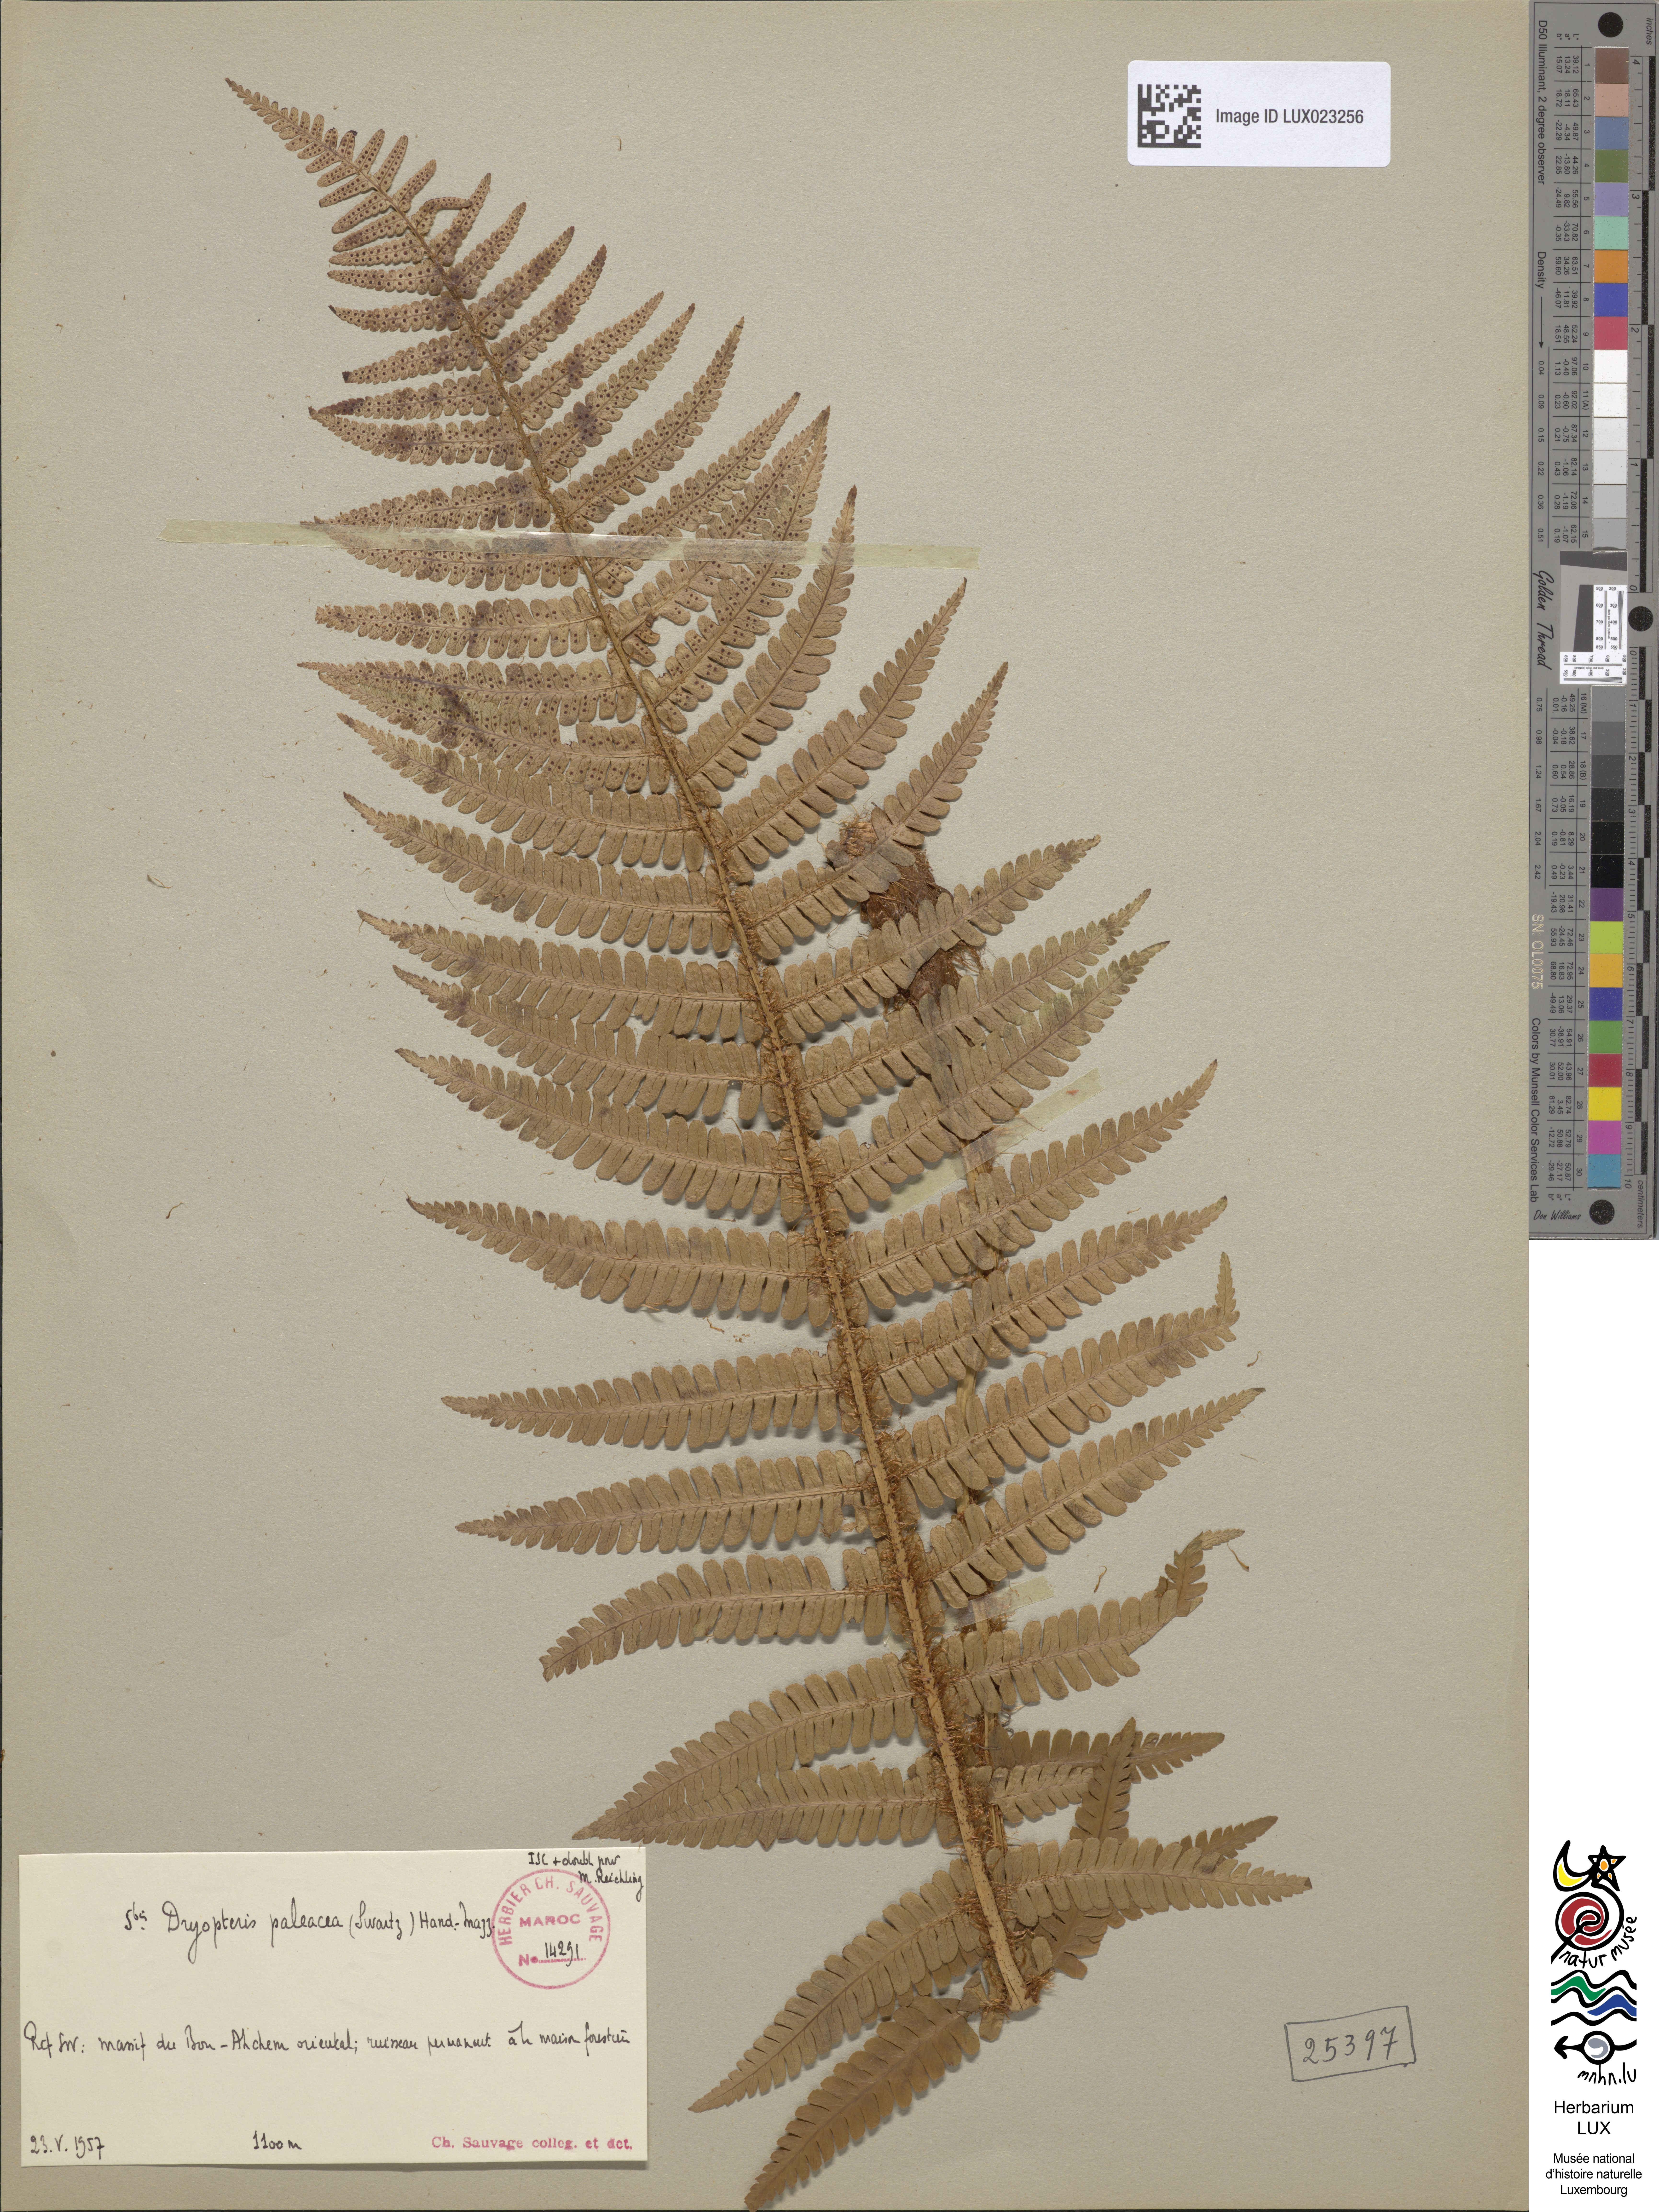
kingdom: Plantae
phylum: Tracheophyta
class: Polypodiopsida
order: Polypodiales
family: Dryopteridaceae
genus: Dryopteris
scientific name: Dryopteris paleacea
